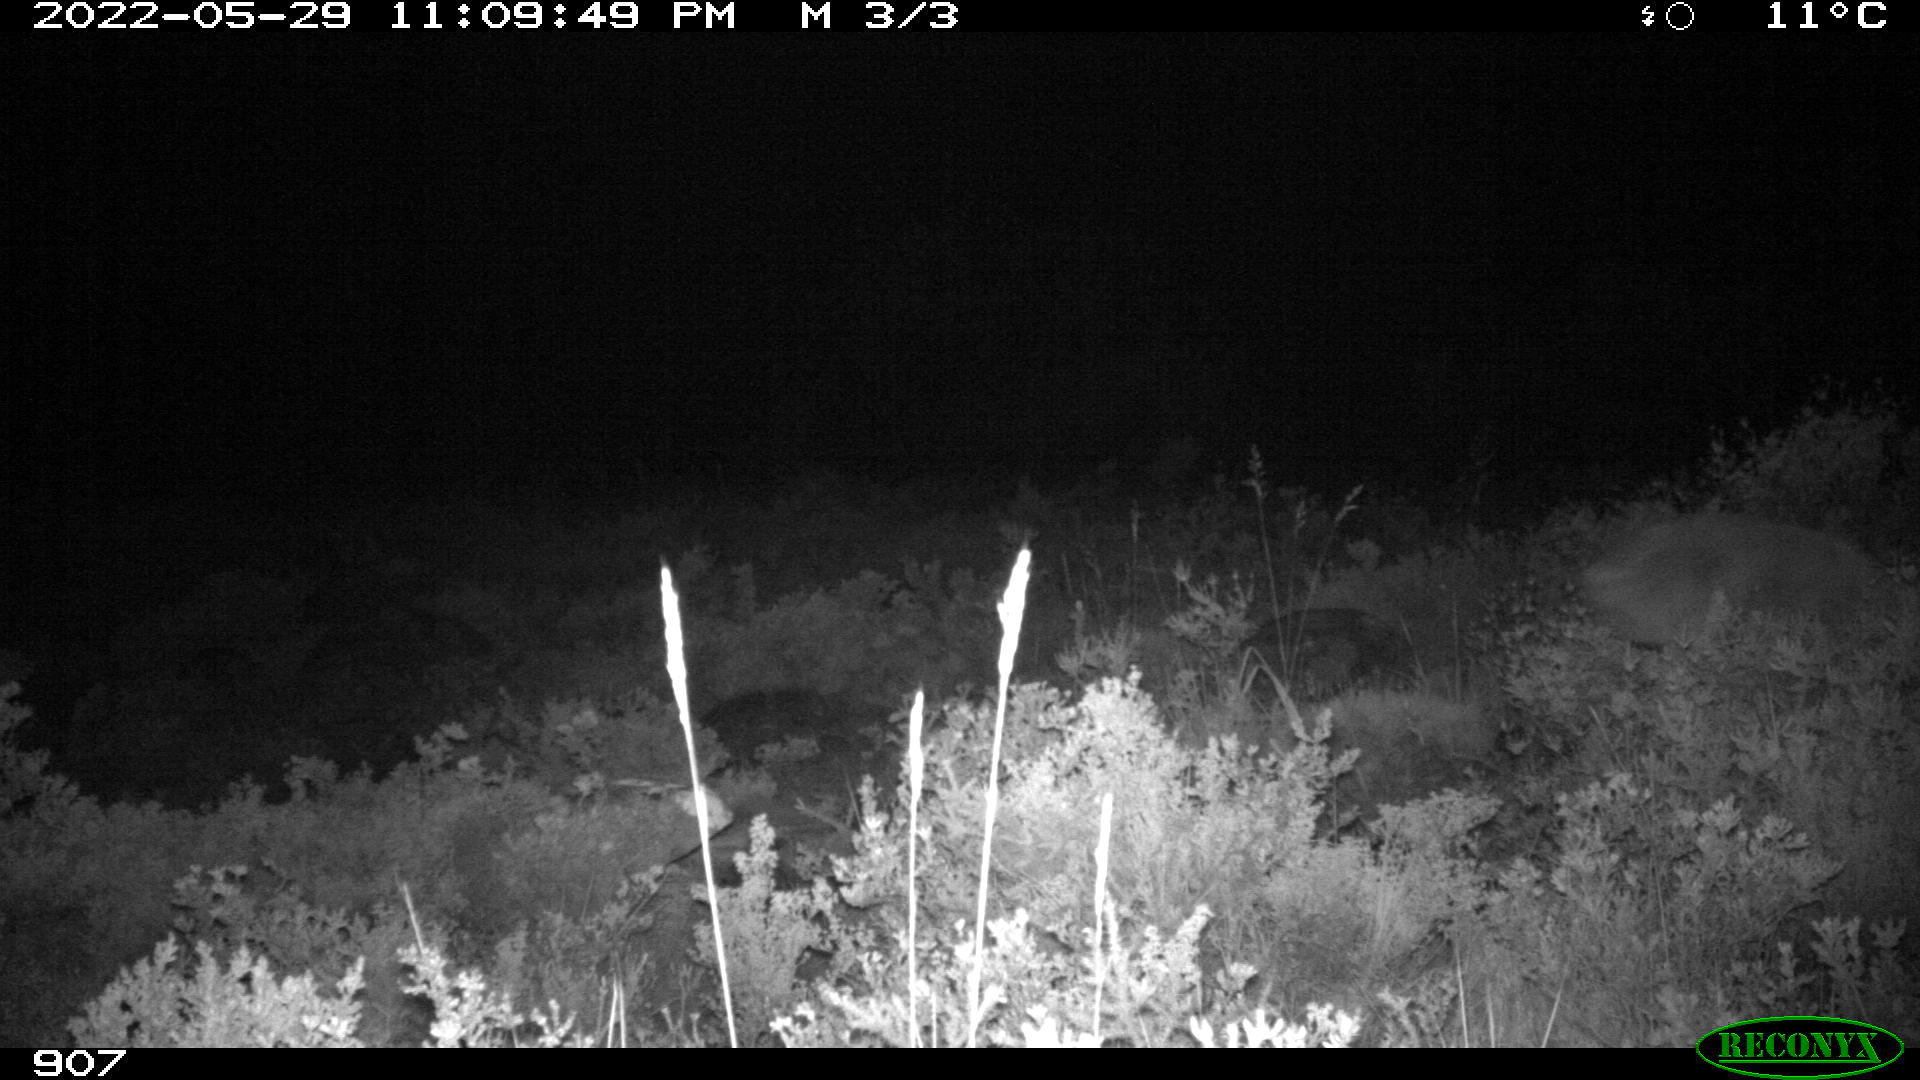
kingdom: Animalia
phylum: Chordata
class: Mammalia
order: Artiodactyla
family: Cervidae
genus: Capreolus
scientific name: Capreolus capreolus
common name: Western roe deer
